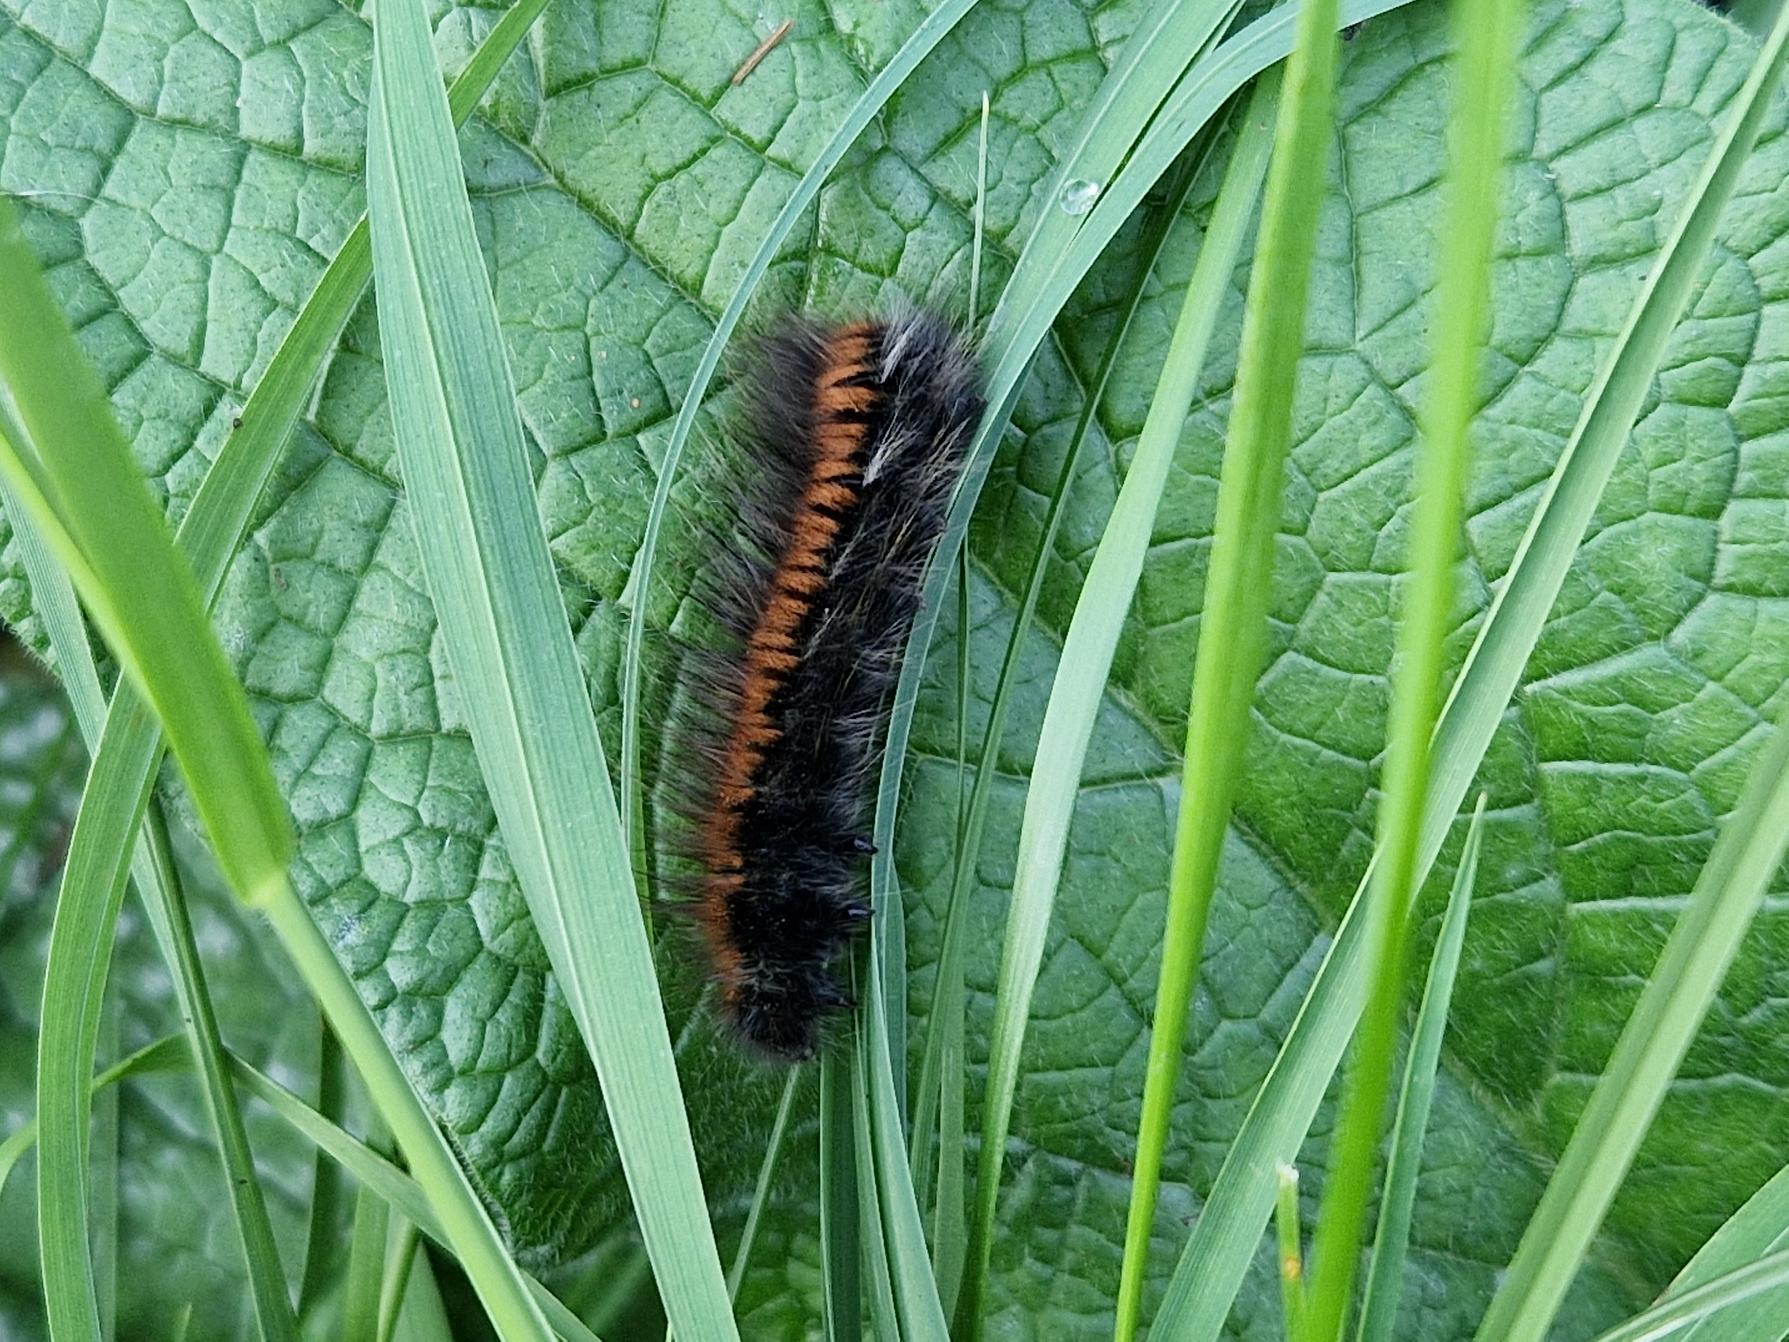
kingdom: Animalia
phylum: Arthropoda
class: Insecta
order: Lepidoptera
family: Lasiocampidae
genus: Macrothylacia
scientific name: Macrothylacia rubi
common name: Brombærspinder
